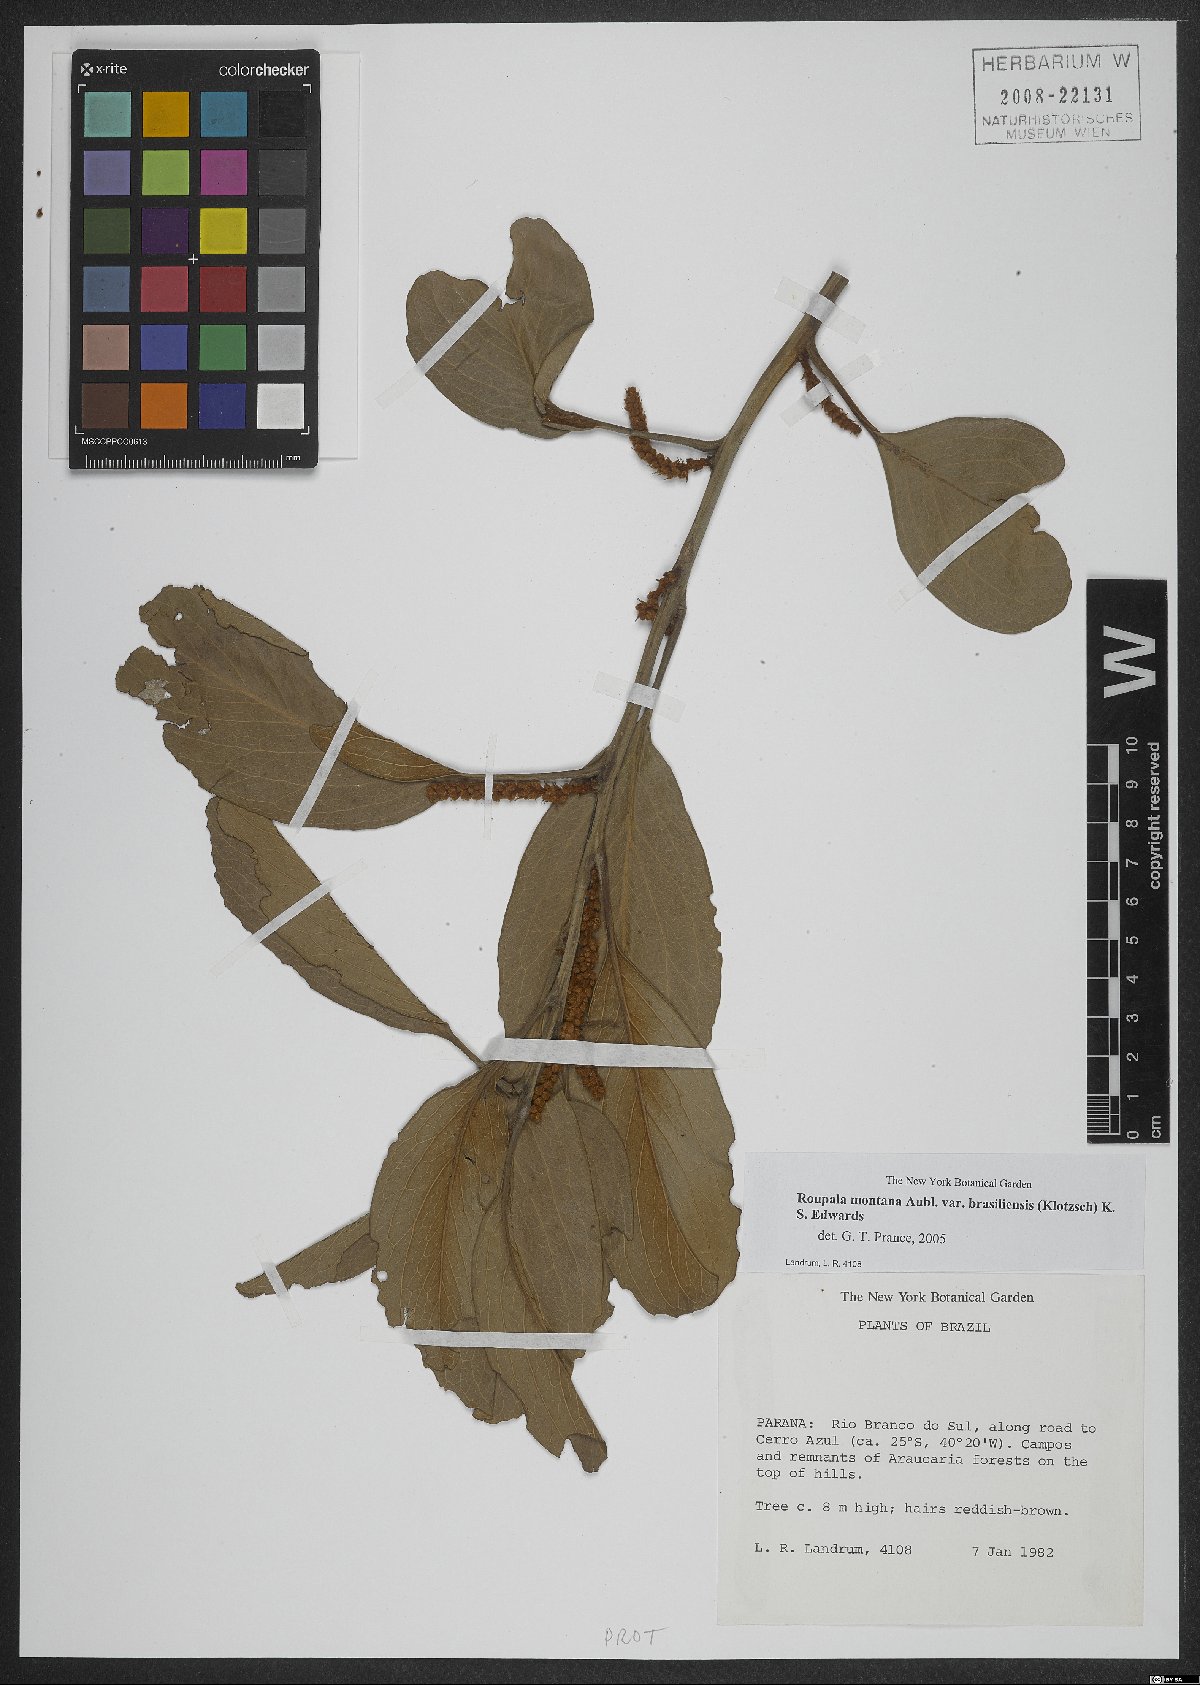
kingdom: Plantae
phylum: Tracheophyta
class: Magnoliopsida
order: Proteales
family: Proteaceae
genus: Roupala
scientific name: Roupala montana
